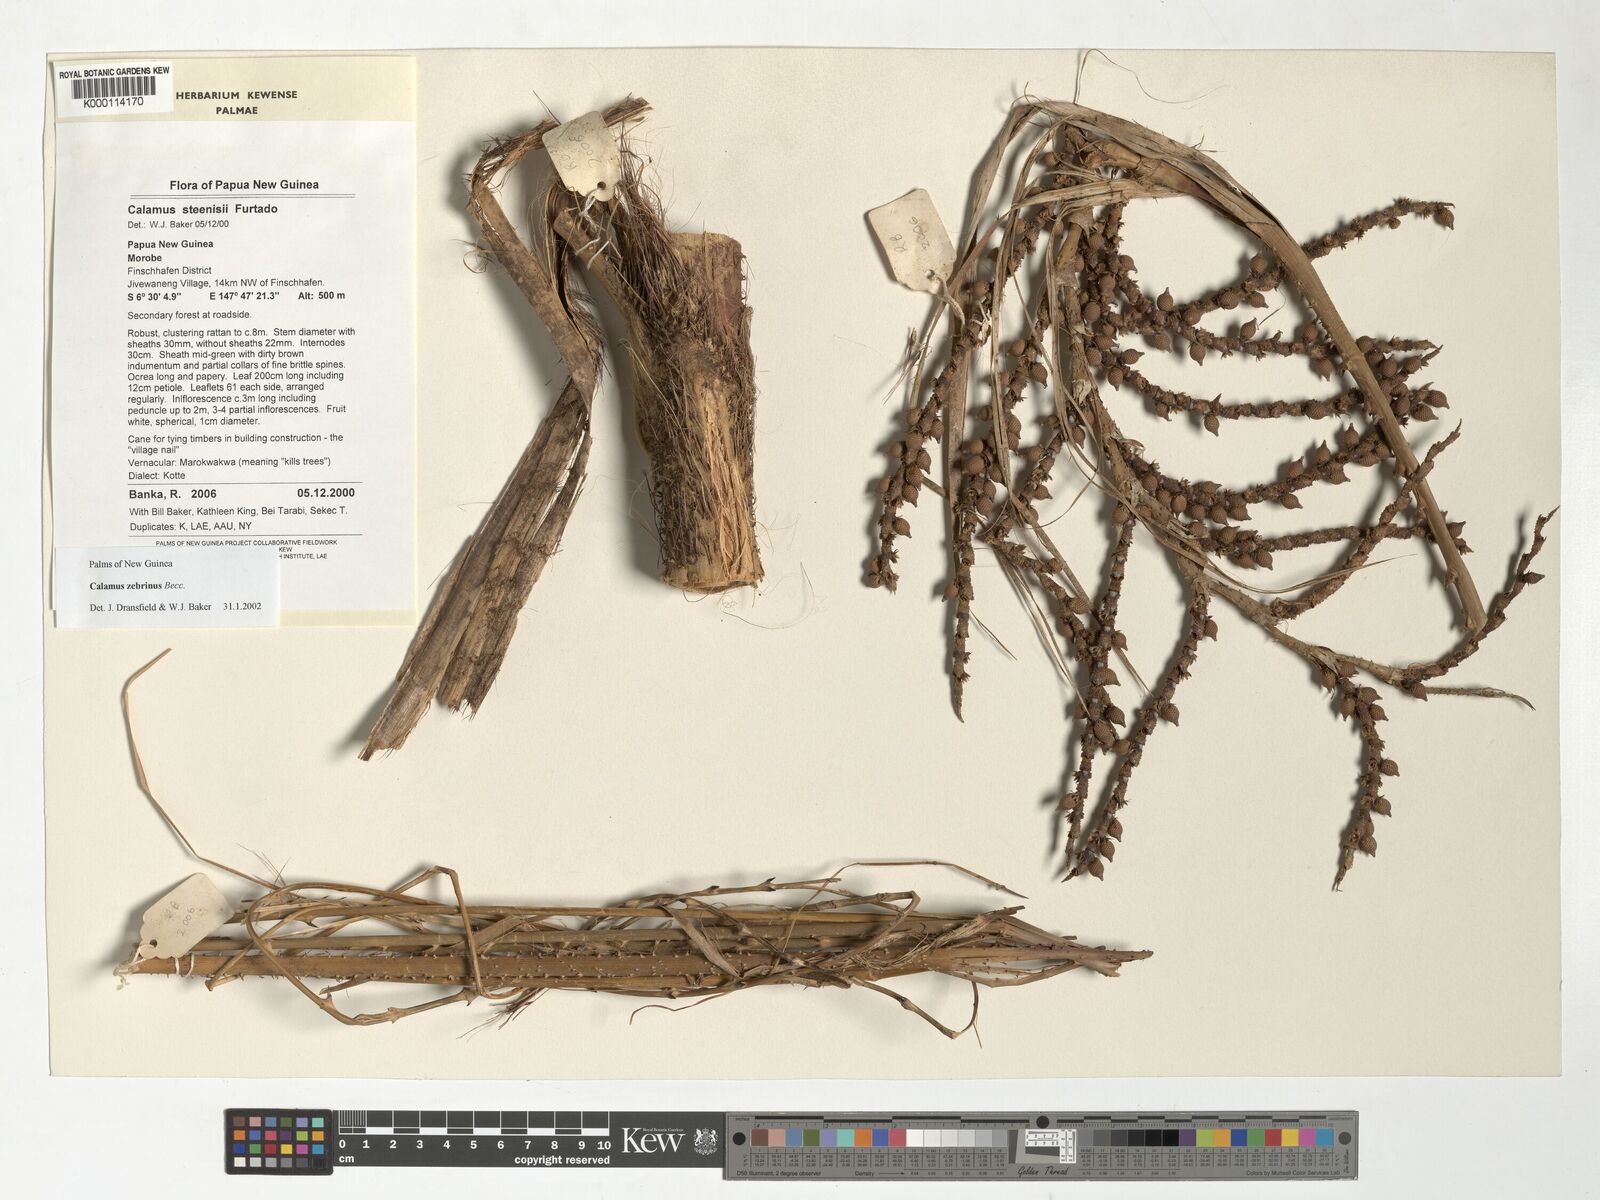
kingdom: Plantae
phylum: Tracheophyta
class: Liliopsida
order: Arecales
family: Arecaceae
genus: Calamus
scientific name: Calamus zebrinus
